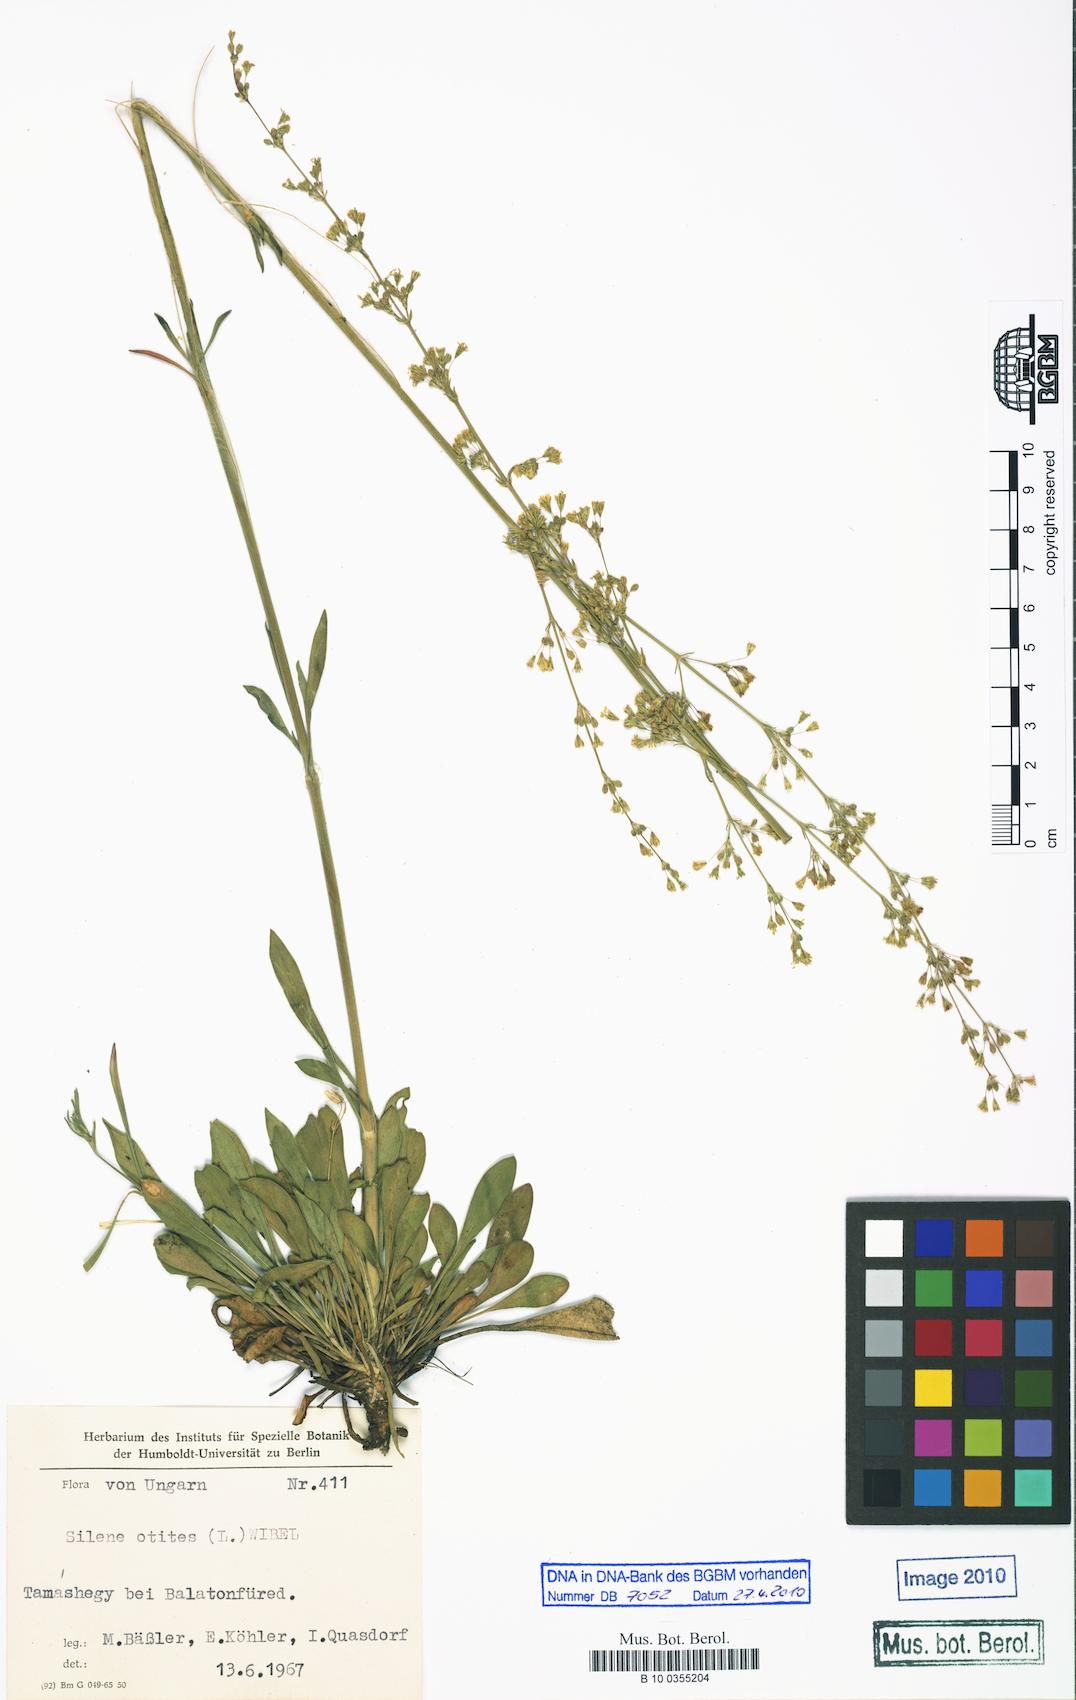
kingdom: Plantae
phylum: Tracheophyta
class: Magnoliopsida
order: Caryophyllales
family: Caryophyllaceae
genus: Silene
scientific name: Silene otites
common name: Spanish catchfly
